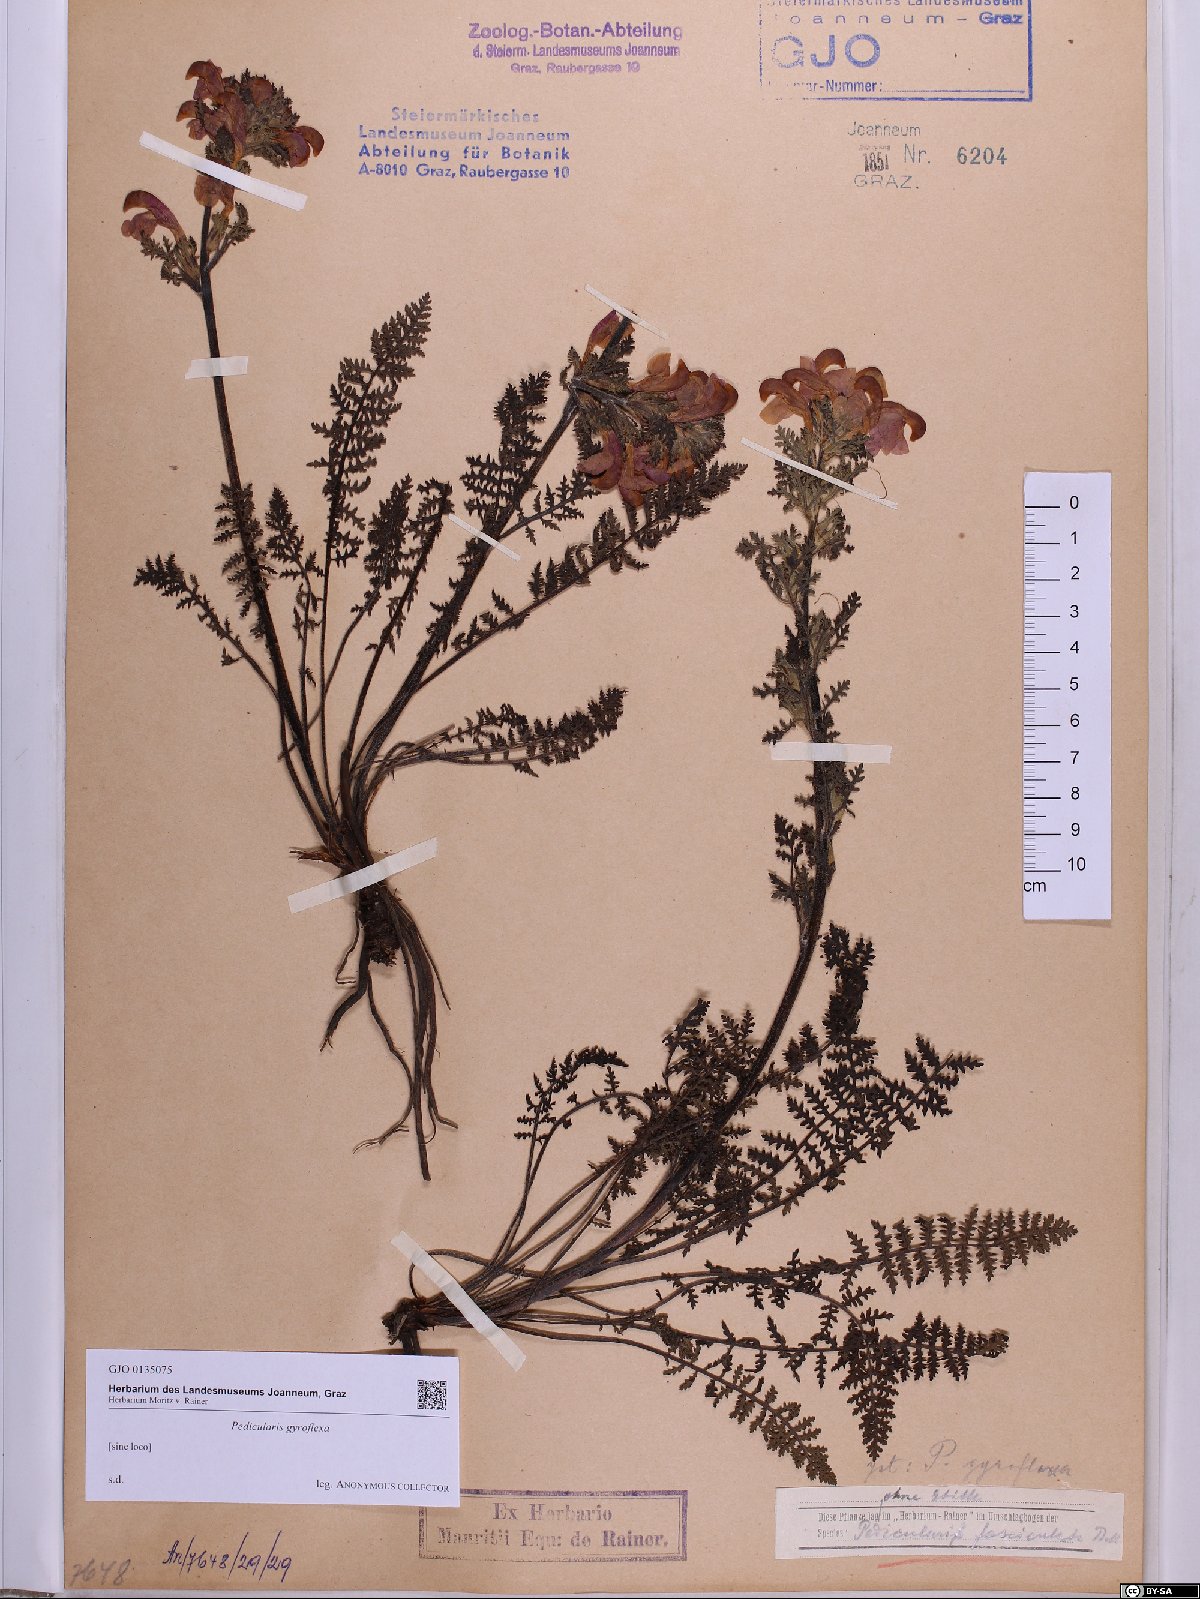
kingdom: Plantae
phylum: Tracheophyta
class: Magnoliopsida
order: Lamiales
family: Orobanchaceae
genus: Pedicularis
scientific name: Pedicularis gyroflexa
